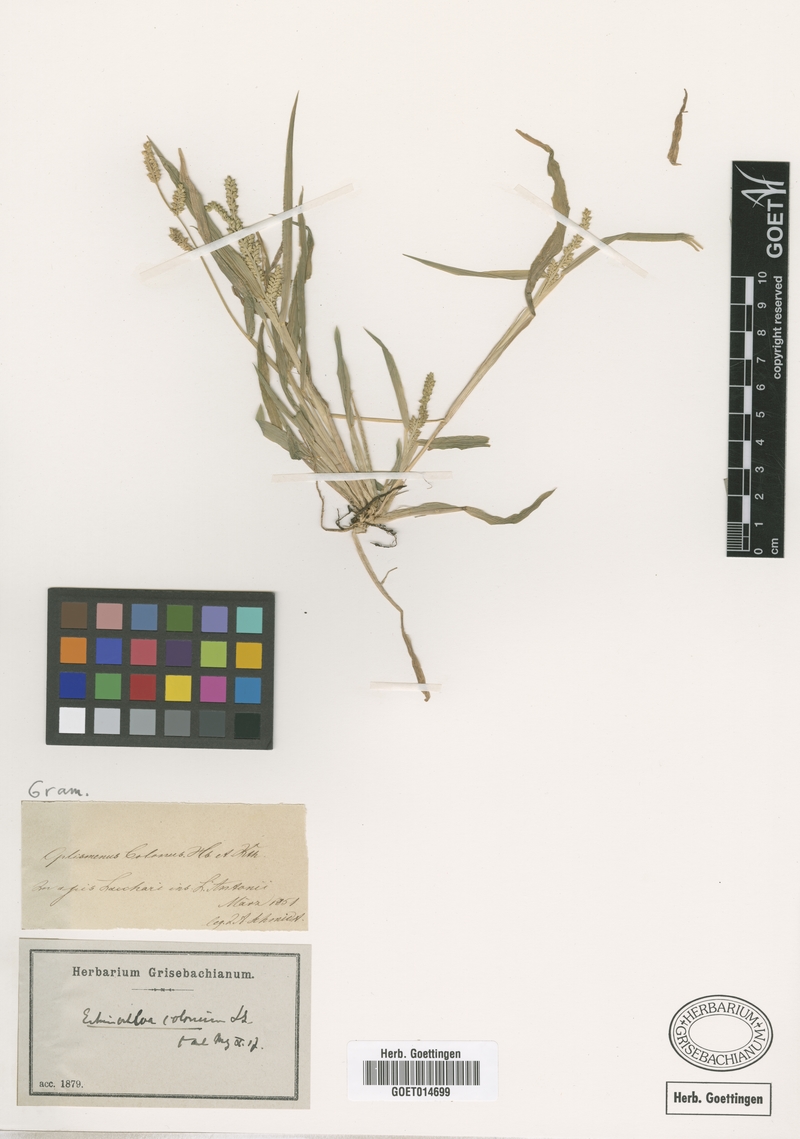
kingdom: Plantae
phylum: Tracheophyta
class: Liliopsida
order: Poales
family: Poaceae
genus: Echinochloa
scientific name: Echinochloa colonum
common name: Jungle rice
